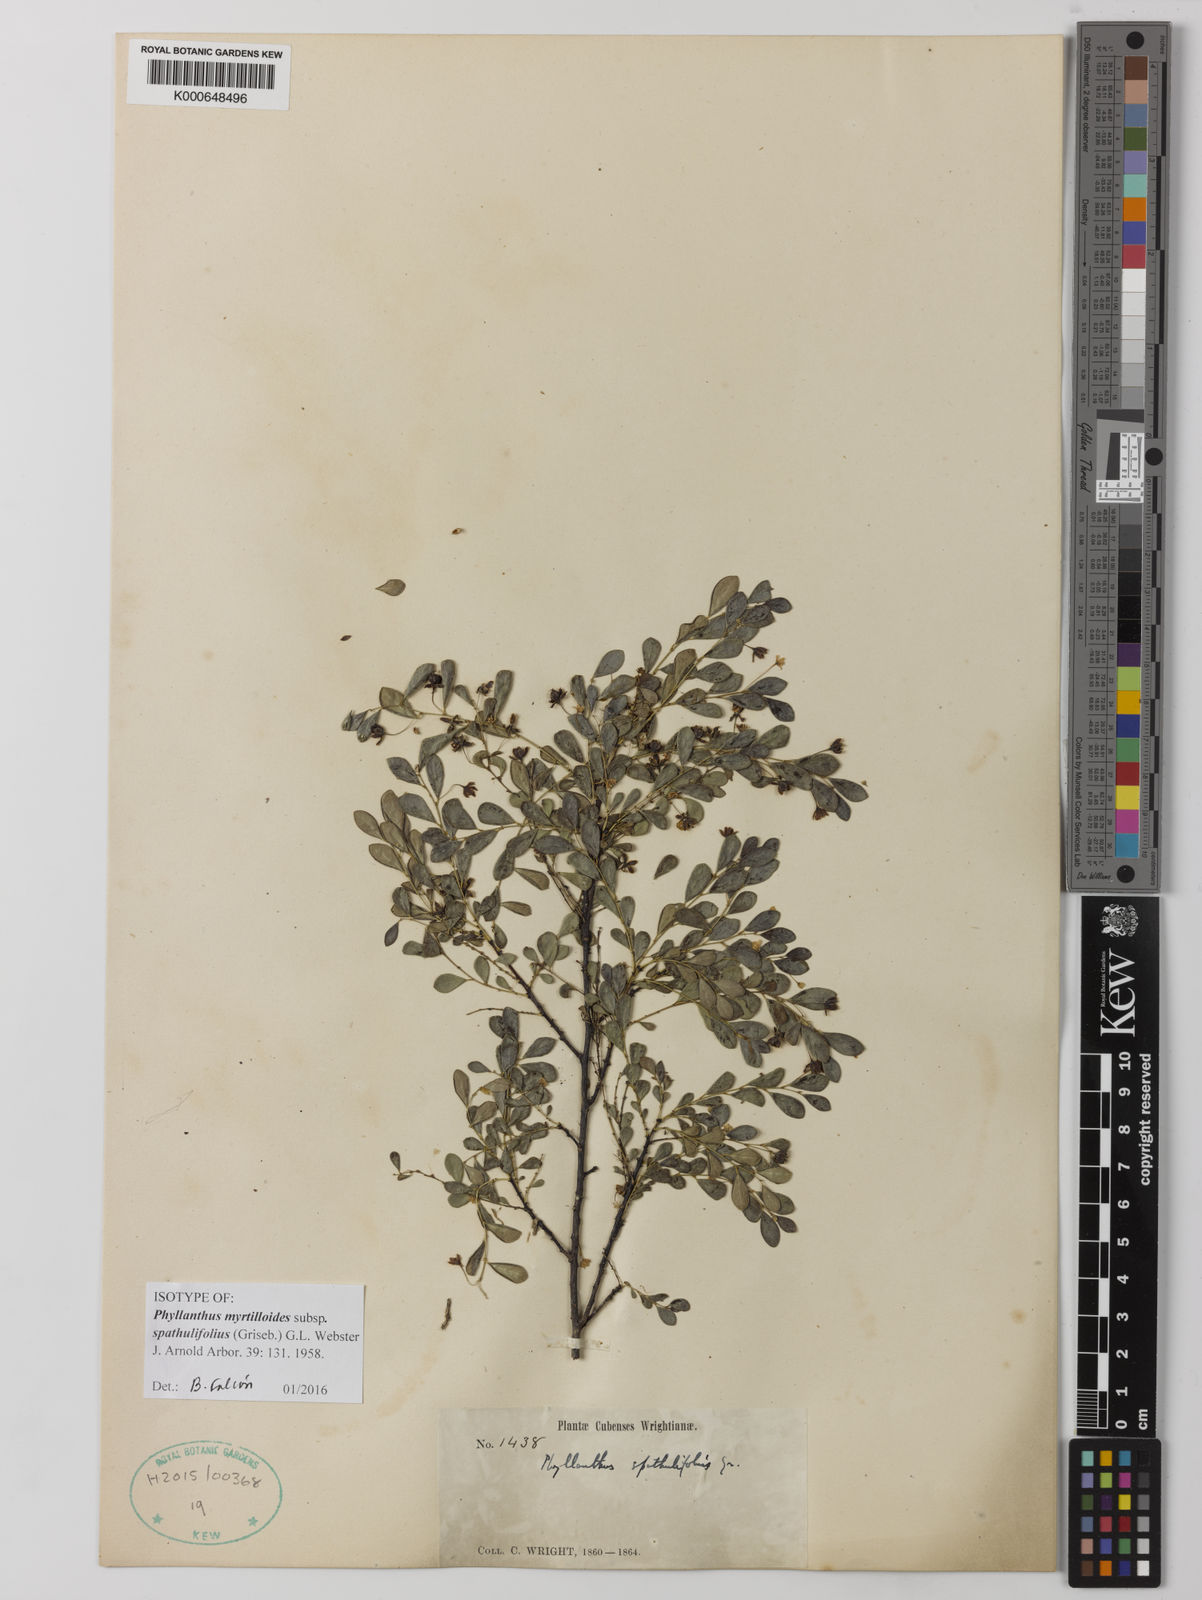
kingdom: Plantae
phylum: Tracheophyta
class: Magnoliopsida
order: Malpighiales
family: Phyllanthaceae
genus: Phyllanthus
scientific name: Phyllanthus myrtilloides
